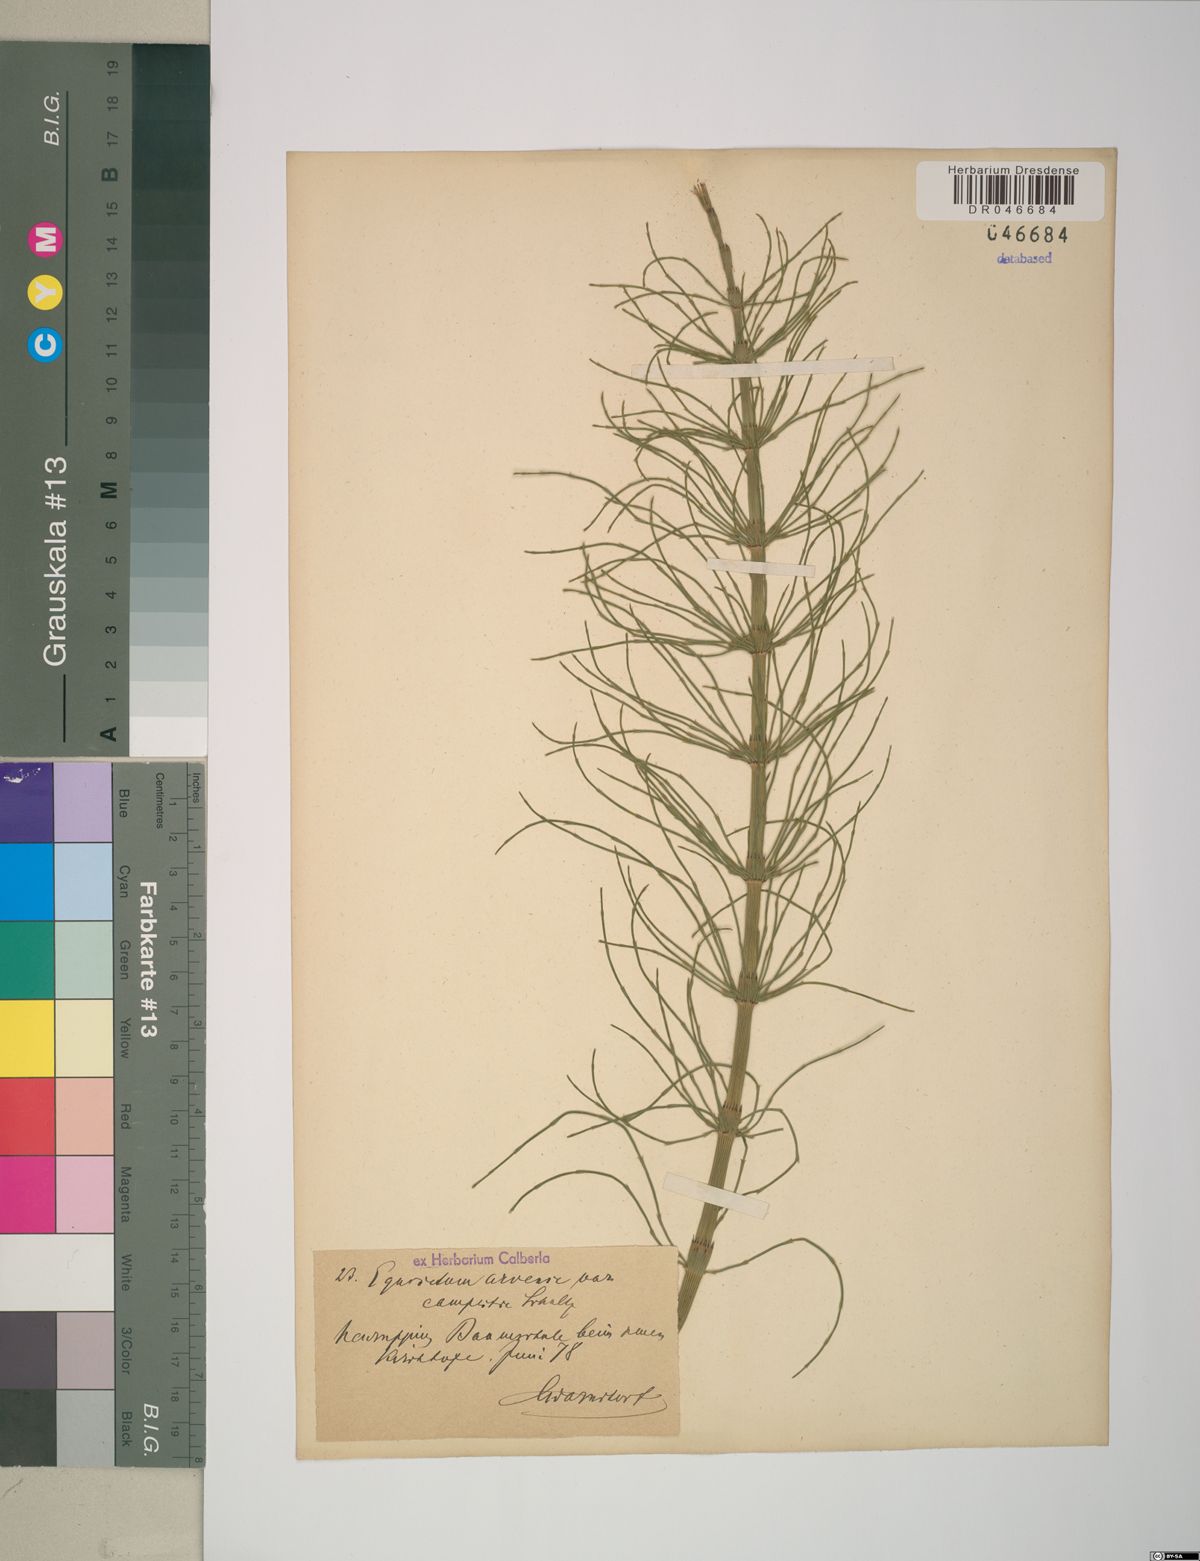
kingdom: Plantae
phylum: Tracheophyta
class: Polypodiopsida
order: Equisetales
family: Equisetaceae
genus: Equisetum
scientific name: Equisetum arvense
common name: Field horsetail
